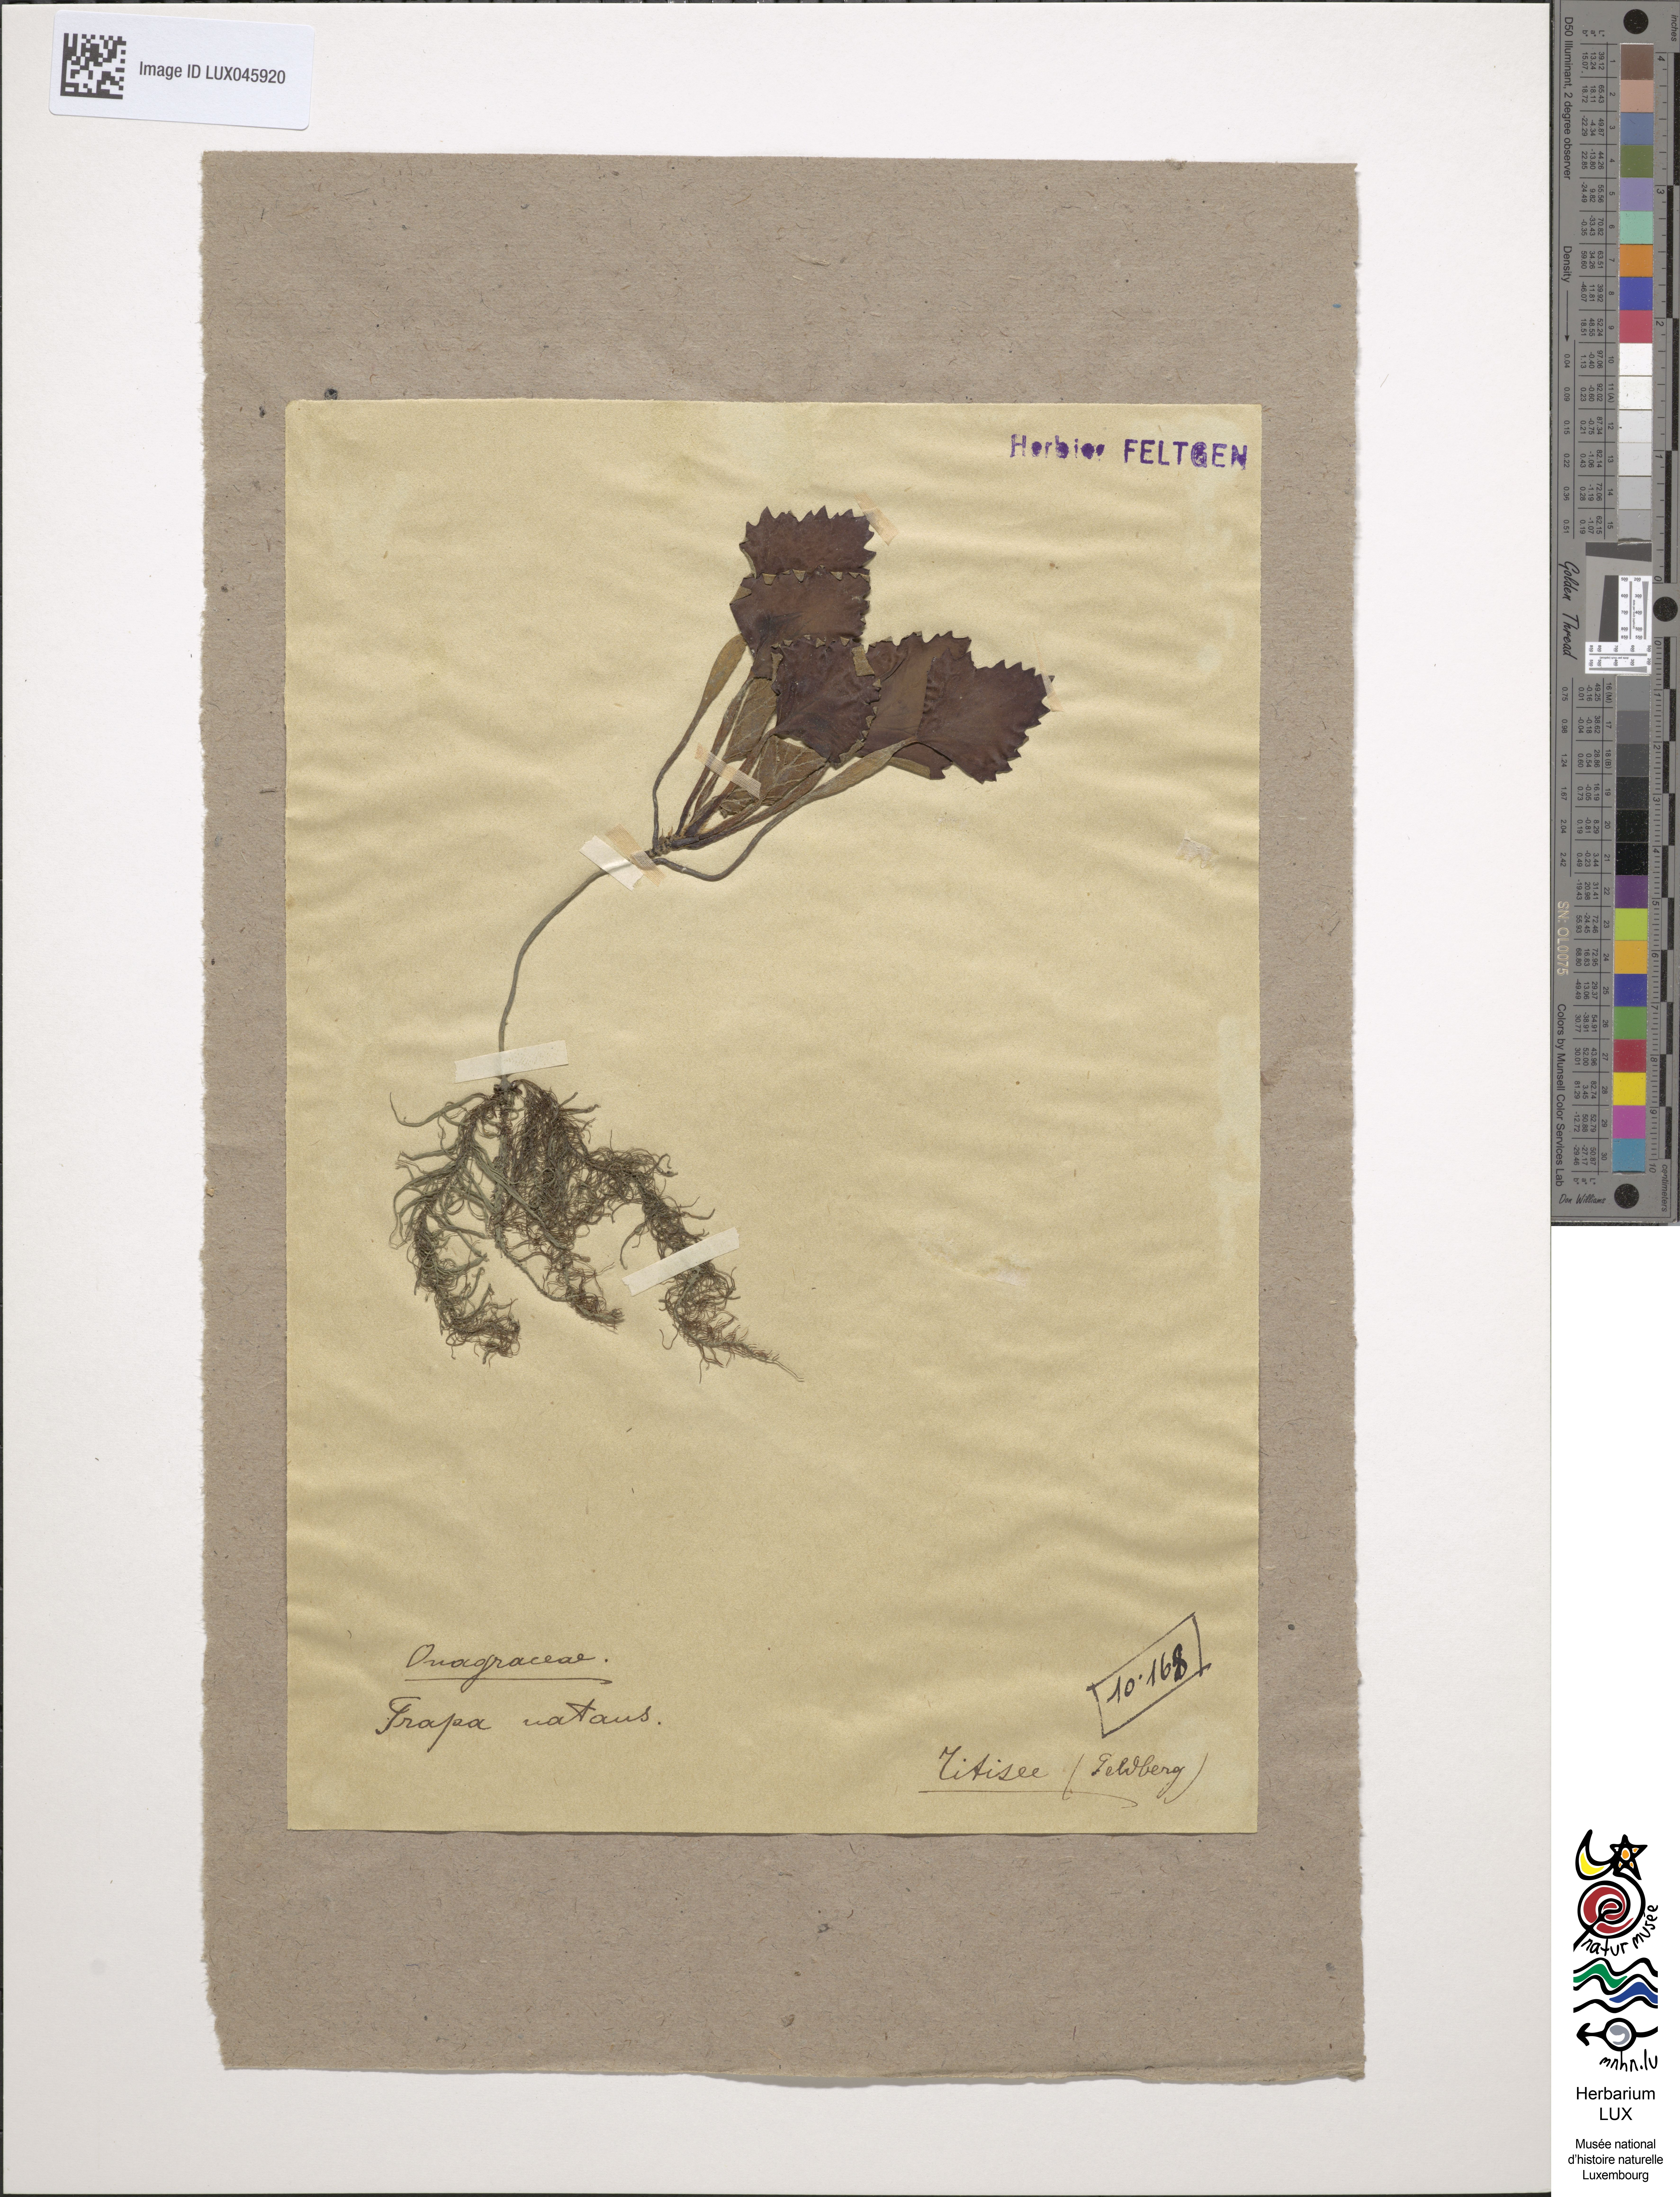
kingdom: Plantae
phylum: Tracheophyta
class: Magnoliopsida
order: Myrtales
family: Lythraceae
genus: Trapa
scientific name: Trapa natans
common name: Water chestnut
